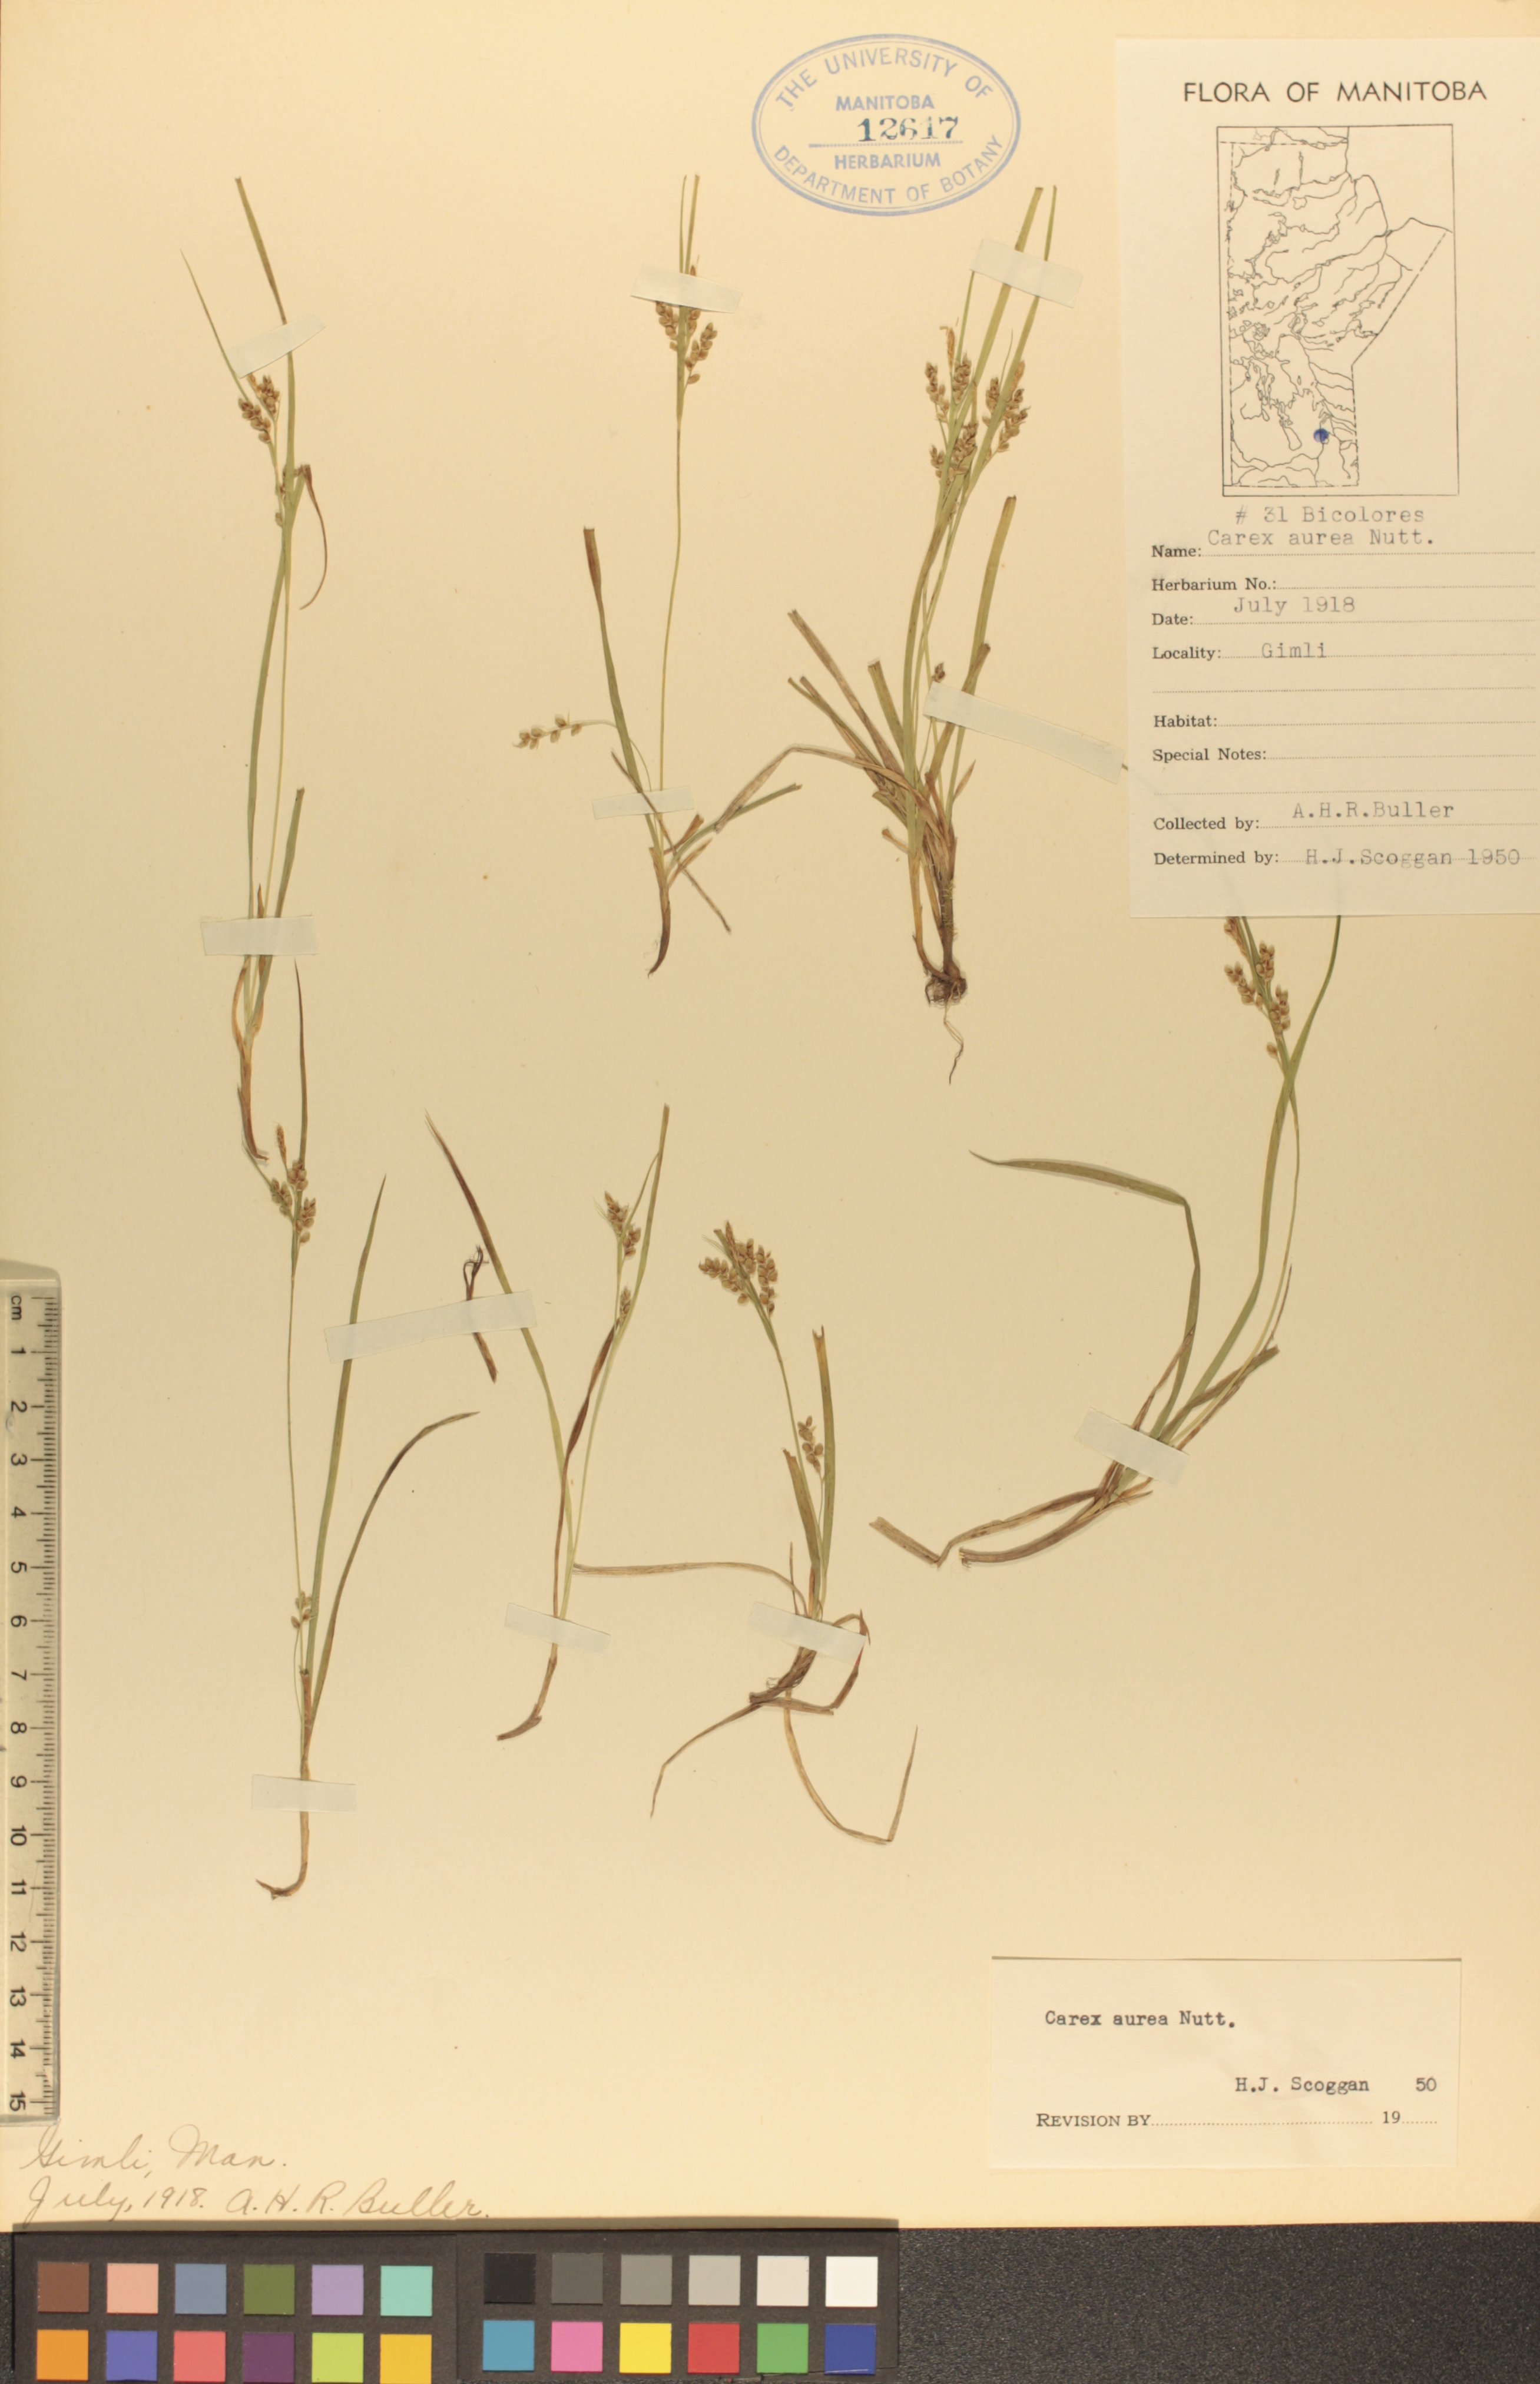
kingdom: Plantae
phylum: Tracheophyta
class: Liliopsida
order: Poales
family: Cyperaceae
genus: Carex
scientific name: Carex aurea
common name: Golden sedge
